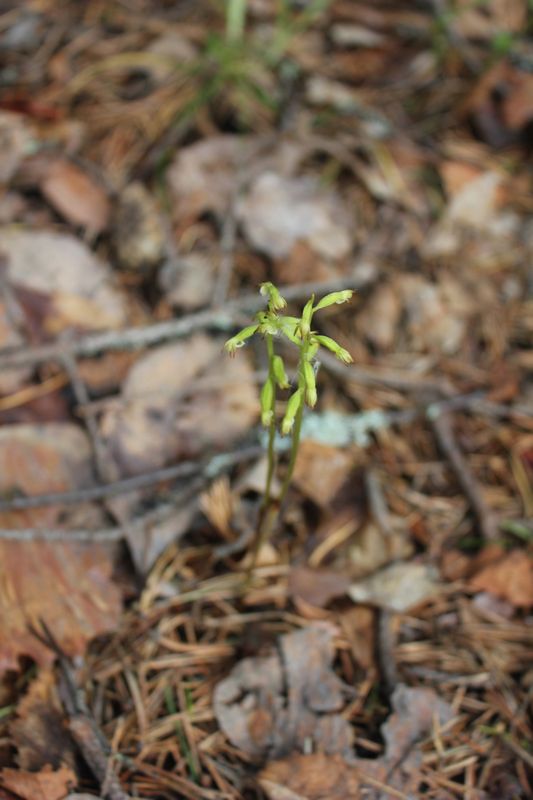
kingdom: Plantae
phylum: Tracheophyta
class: Liliopsida
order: Asparagales
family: Orchidaceae
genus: Corallorhiza
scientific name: Corallorhiza trifida
